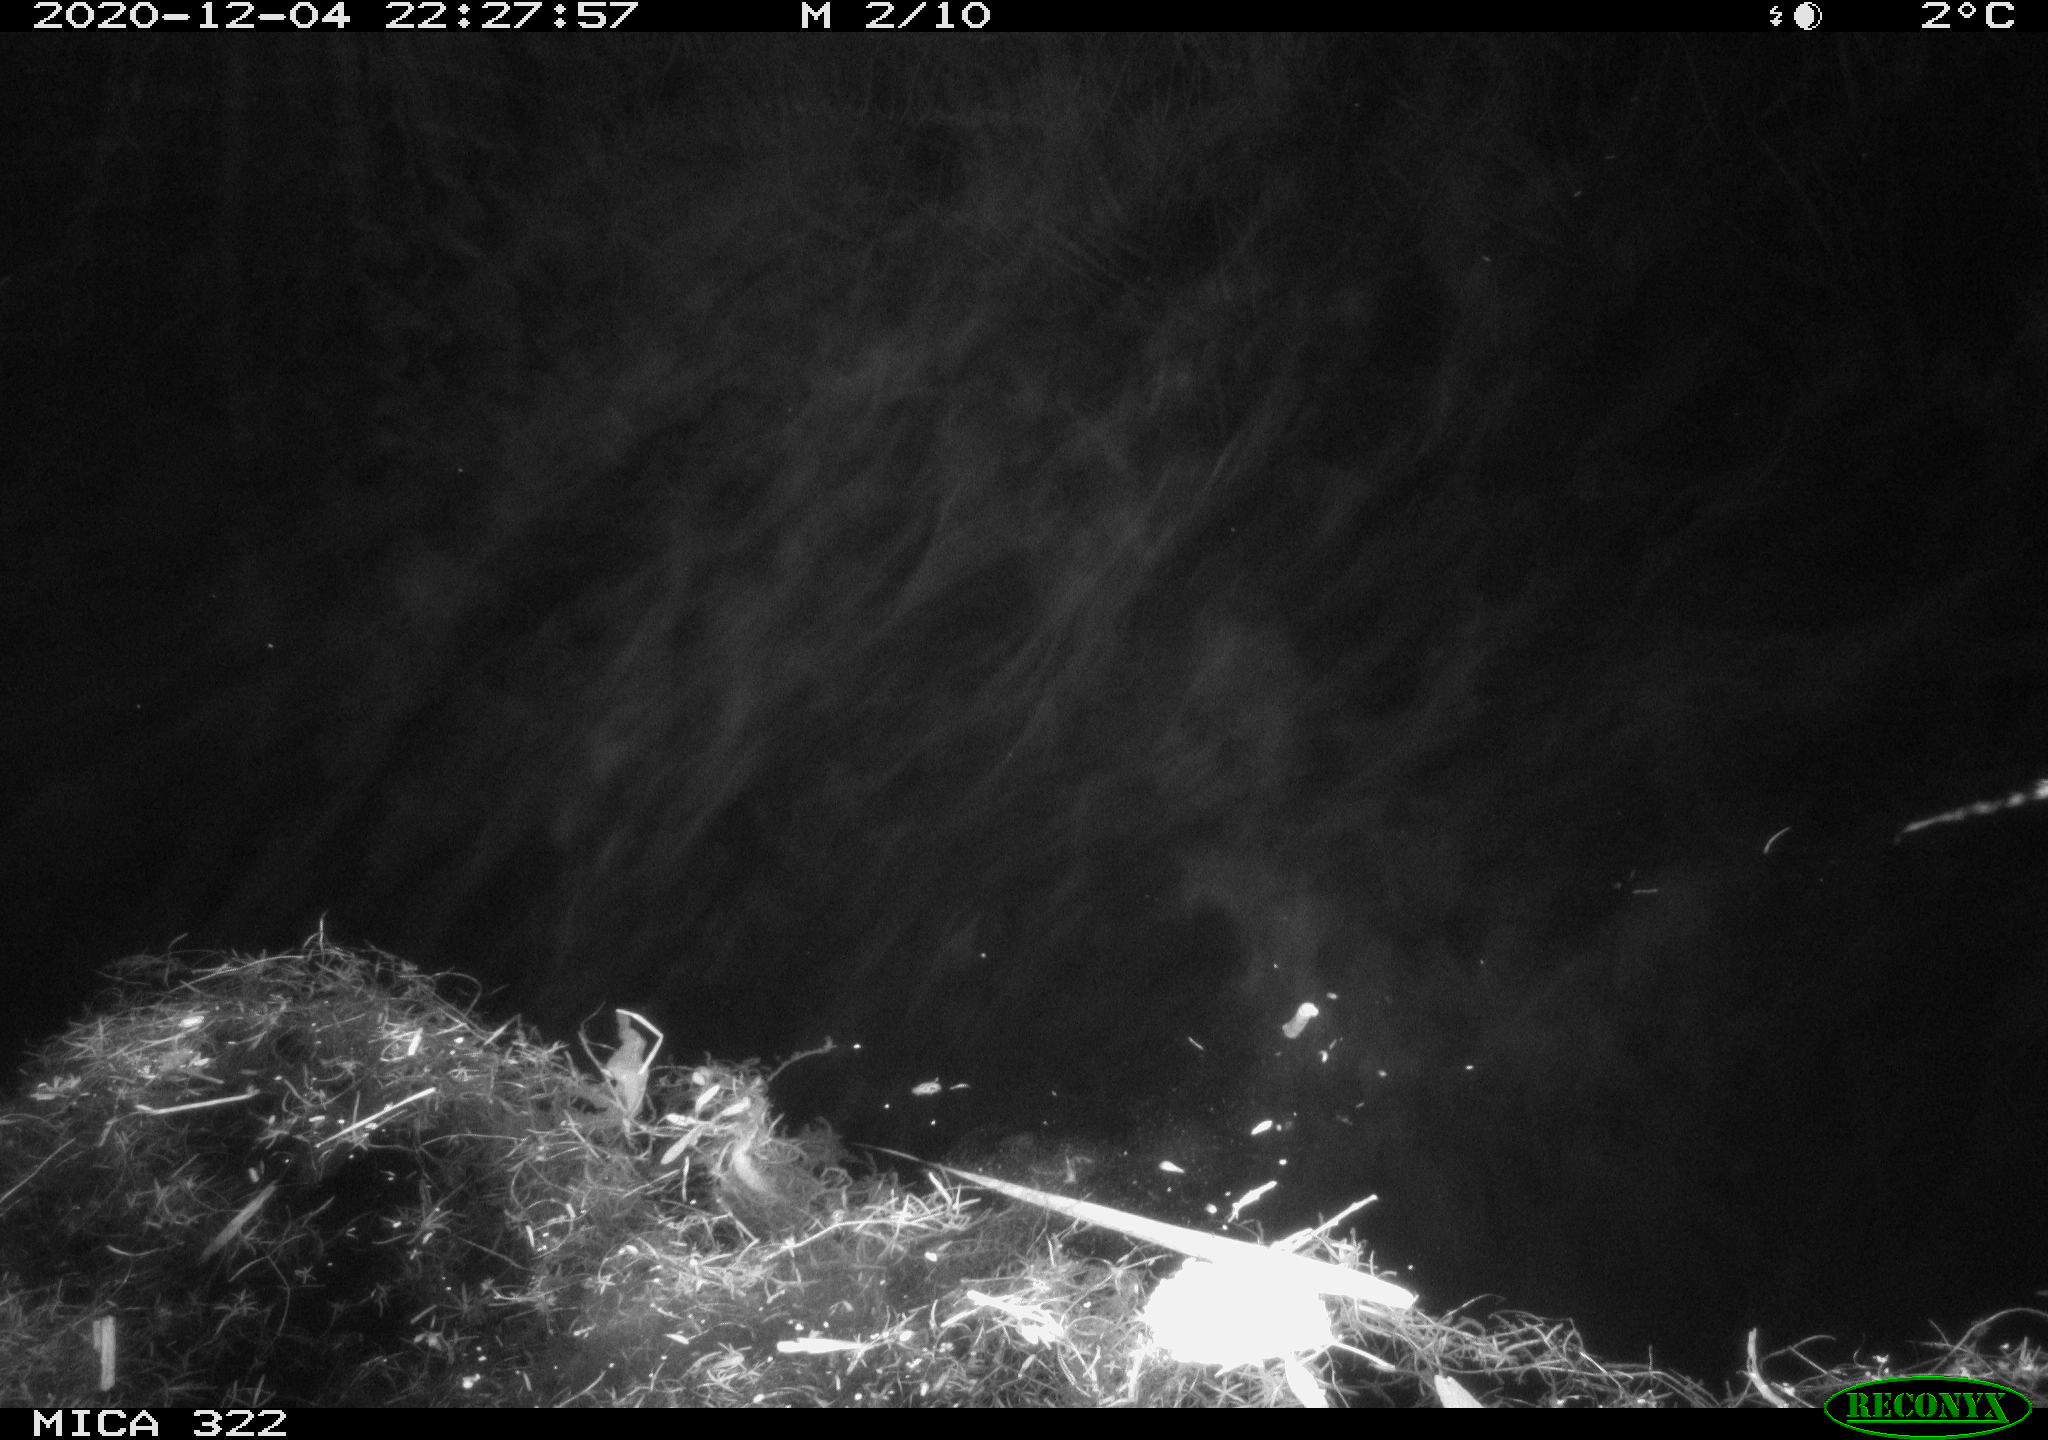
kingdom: Animalia
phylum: Chordata
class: Mammalia
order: Rodentia
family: Muridae
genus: Rattus
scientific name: Rattus norvegicus
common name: Brown rat
